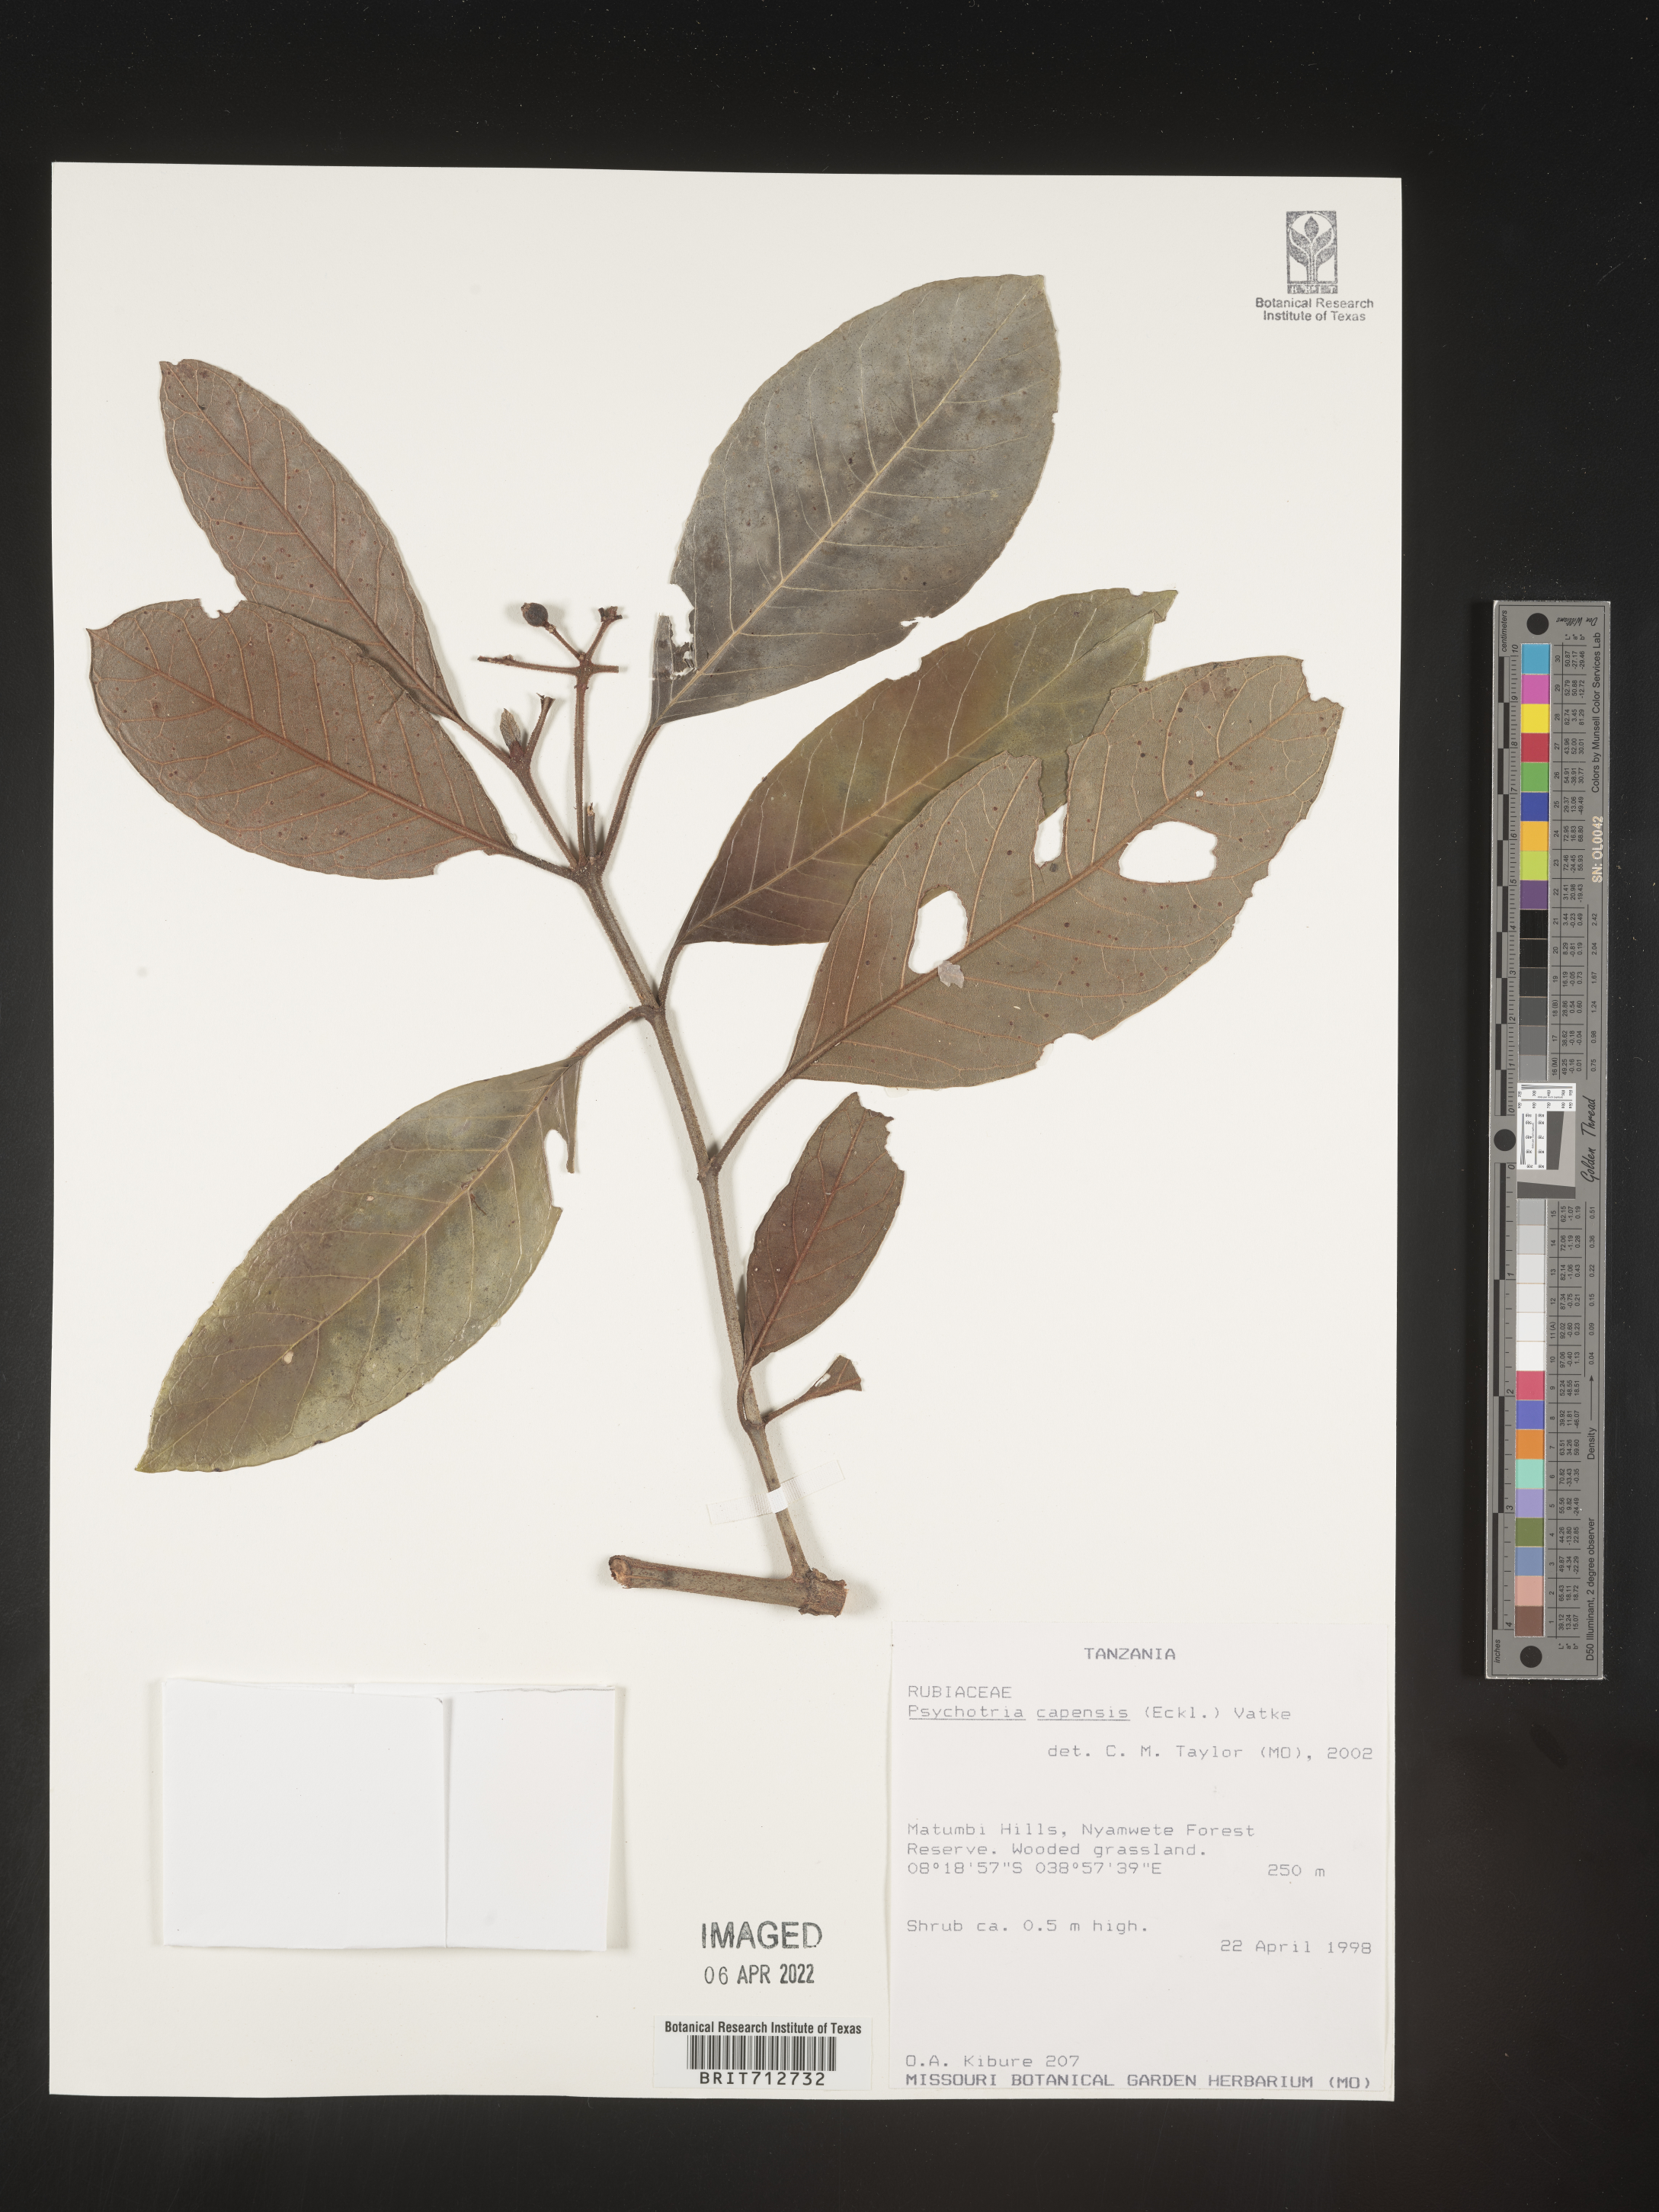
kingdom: Plantae
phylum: Tracheophyta
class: Magnoliopsida
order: Gentianales
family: Rubiaceae
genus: Psychotria
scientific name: Psychotria capensis
